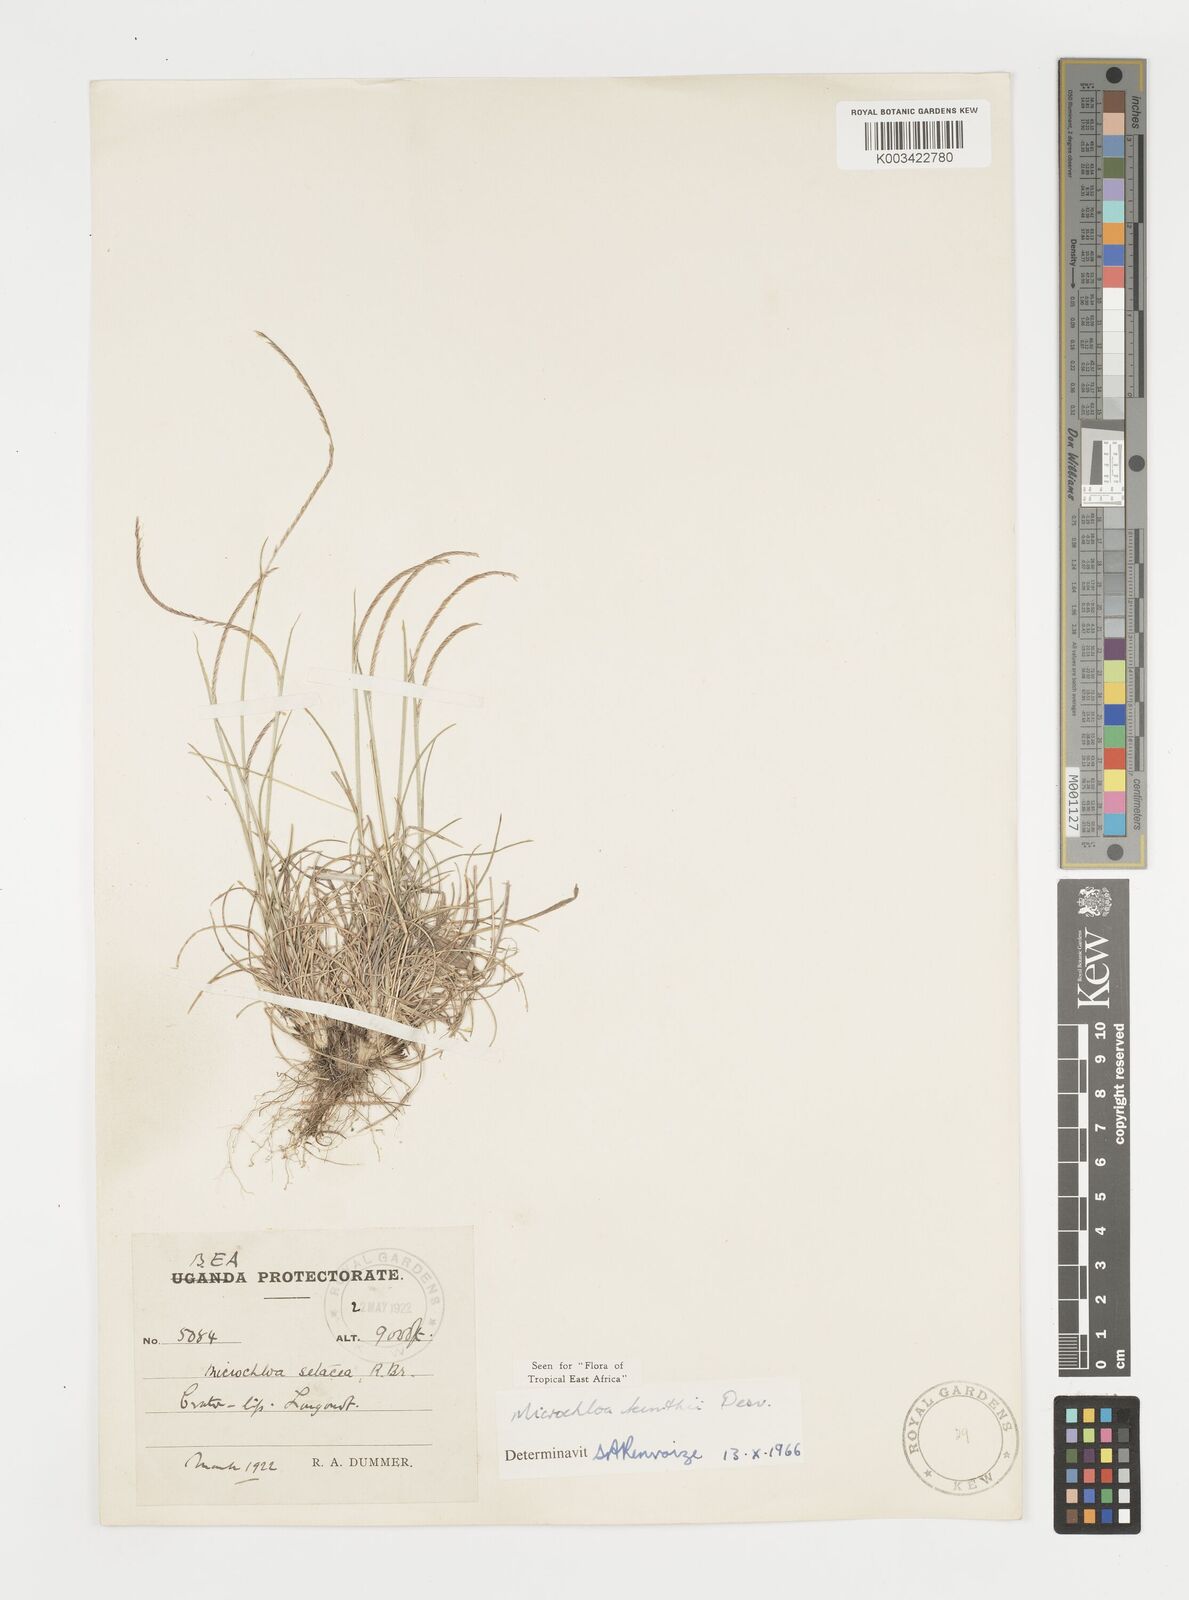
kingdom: Plantae
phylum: Tracheophyta
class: Liliopsida
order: Poales
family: Poaceae
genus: Microchloa
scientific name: Microchloa kunthii
